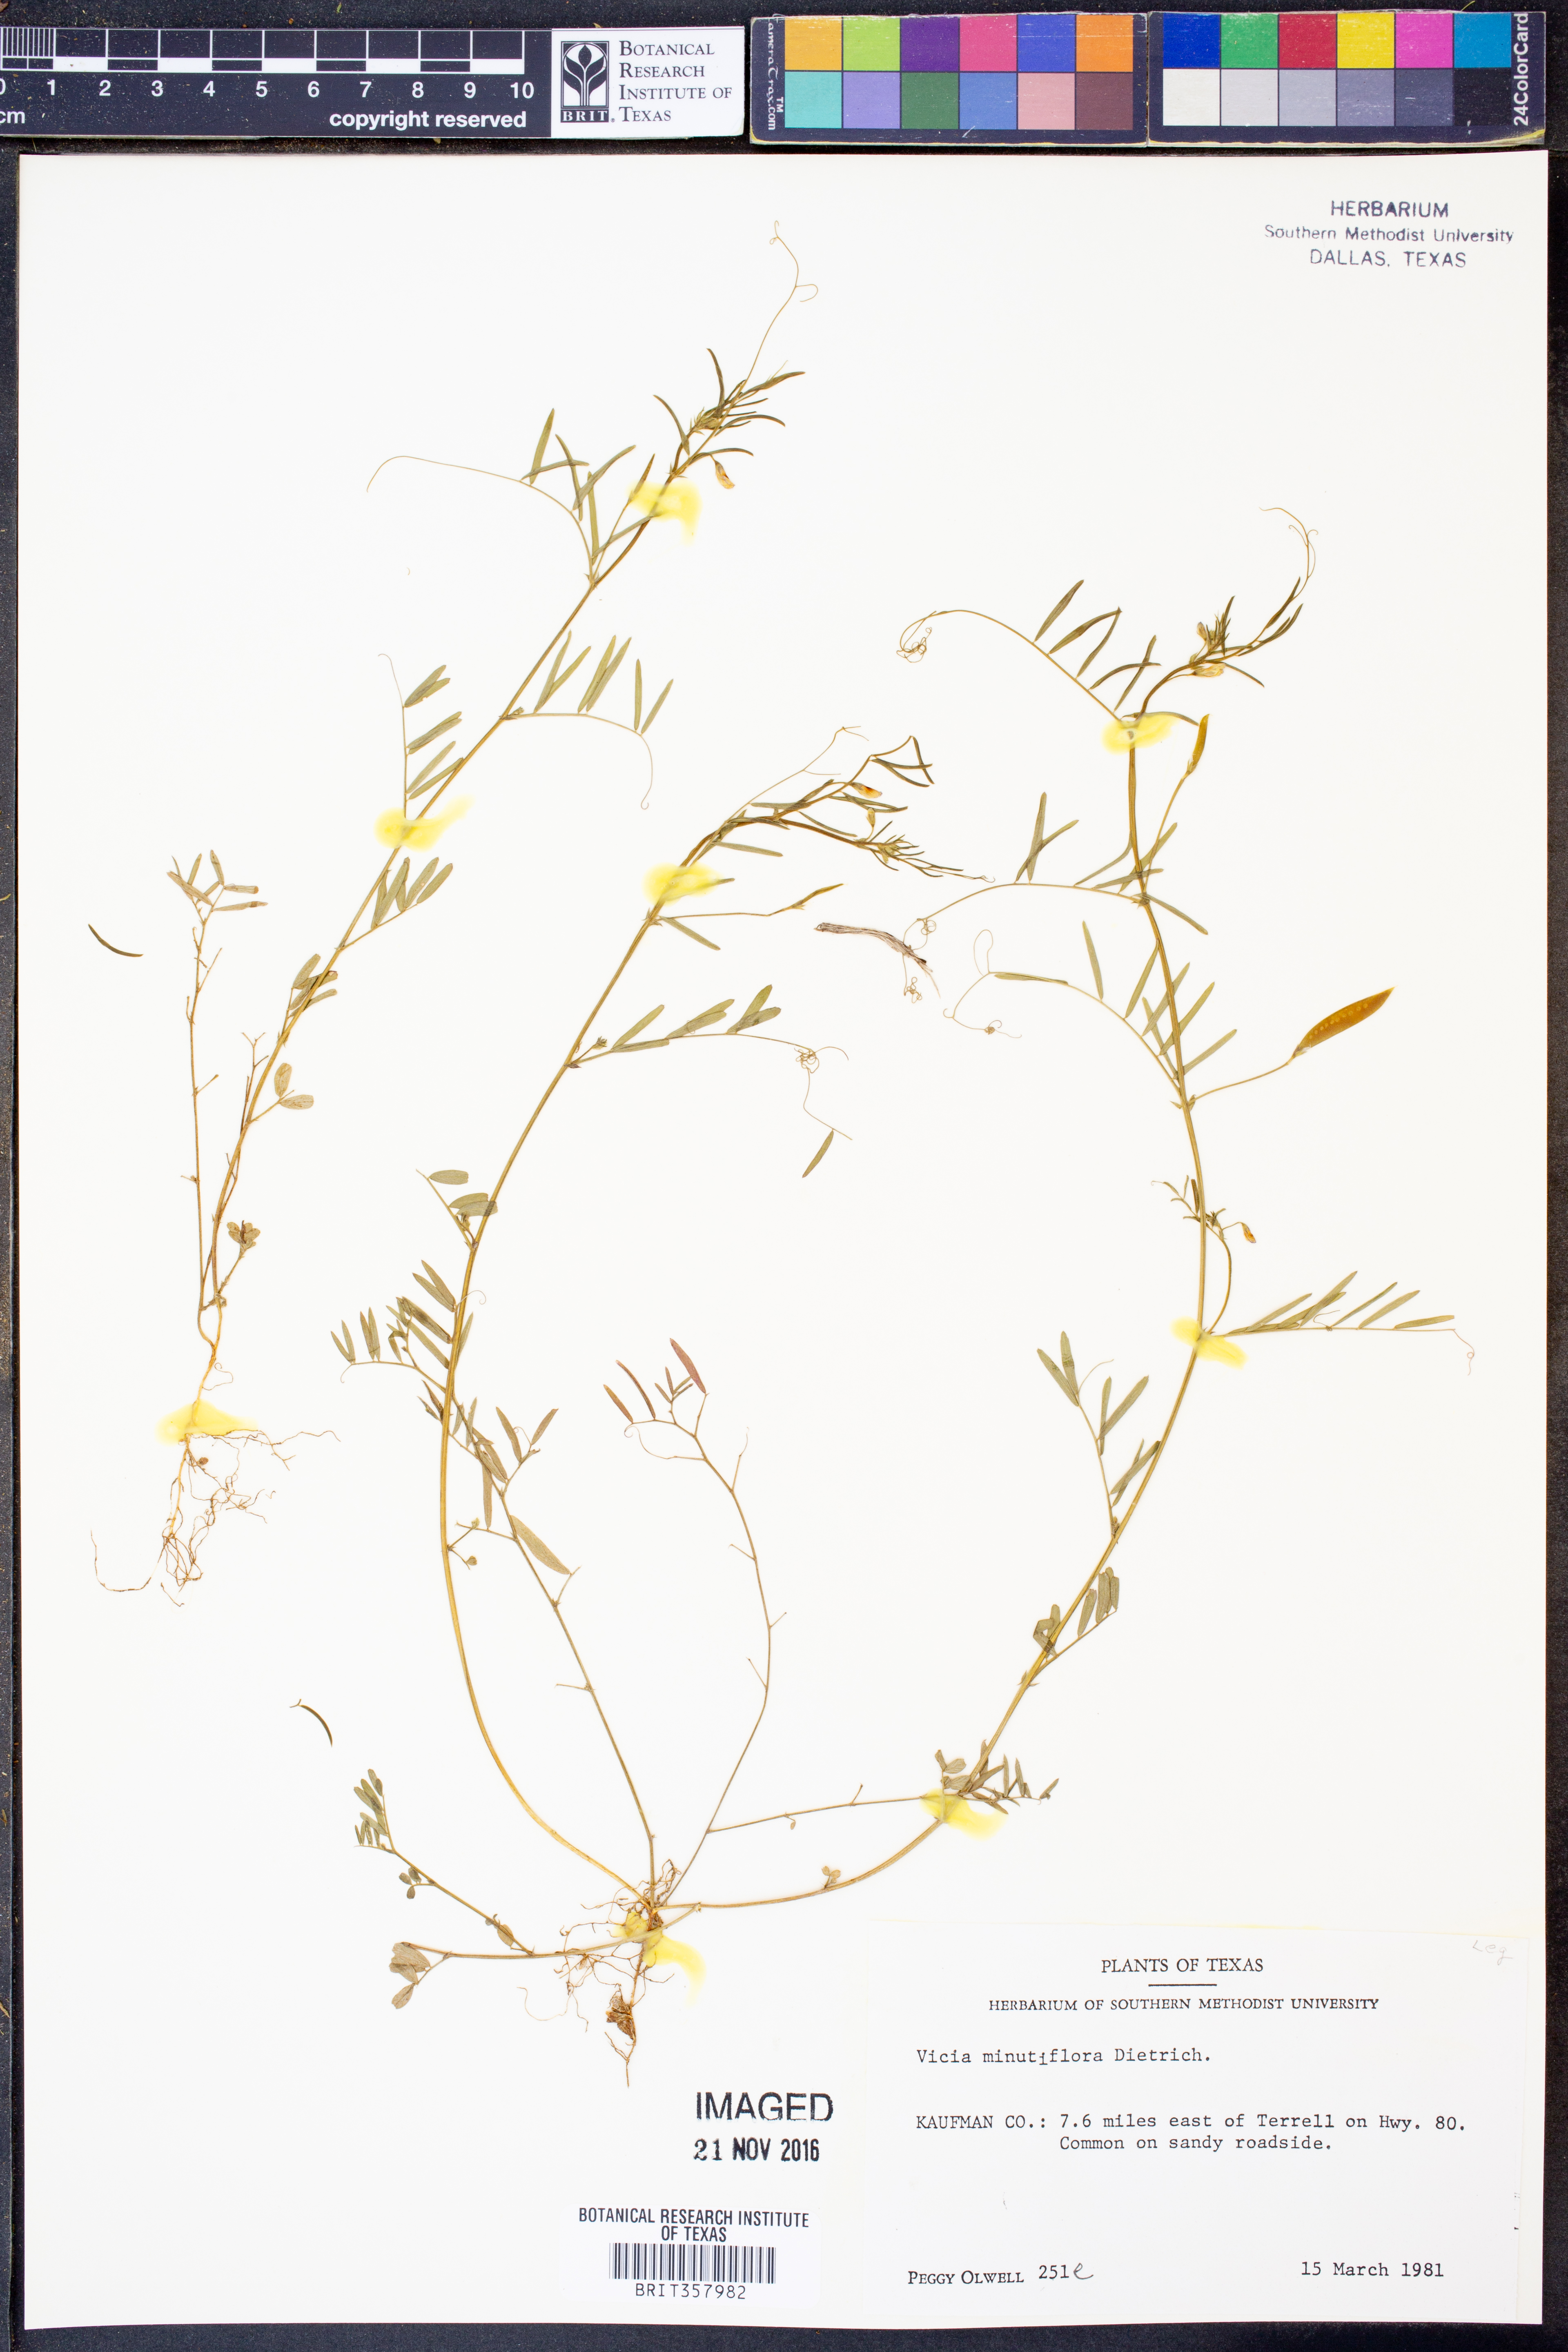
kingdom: Plantae
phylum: Tracheophyta
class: Magnoliopsida
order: Fabales
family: Fabaceae
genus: Vicia
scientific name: Vicia minutiflora
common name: Pygmy-flower vetch
